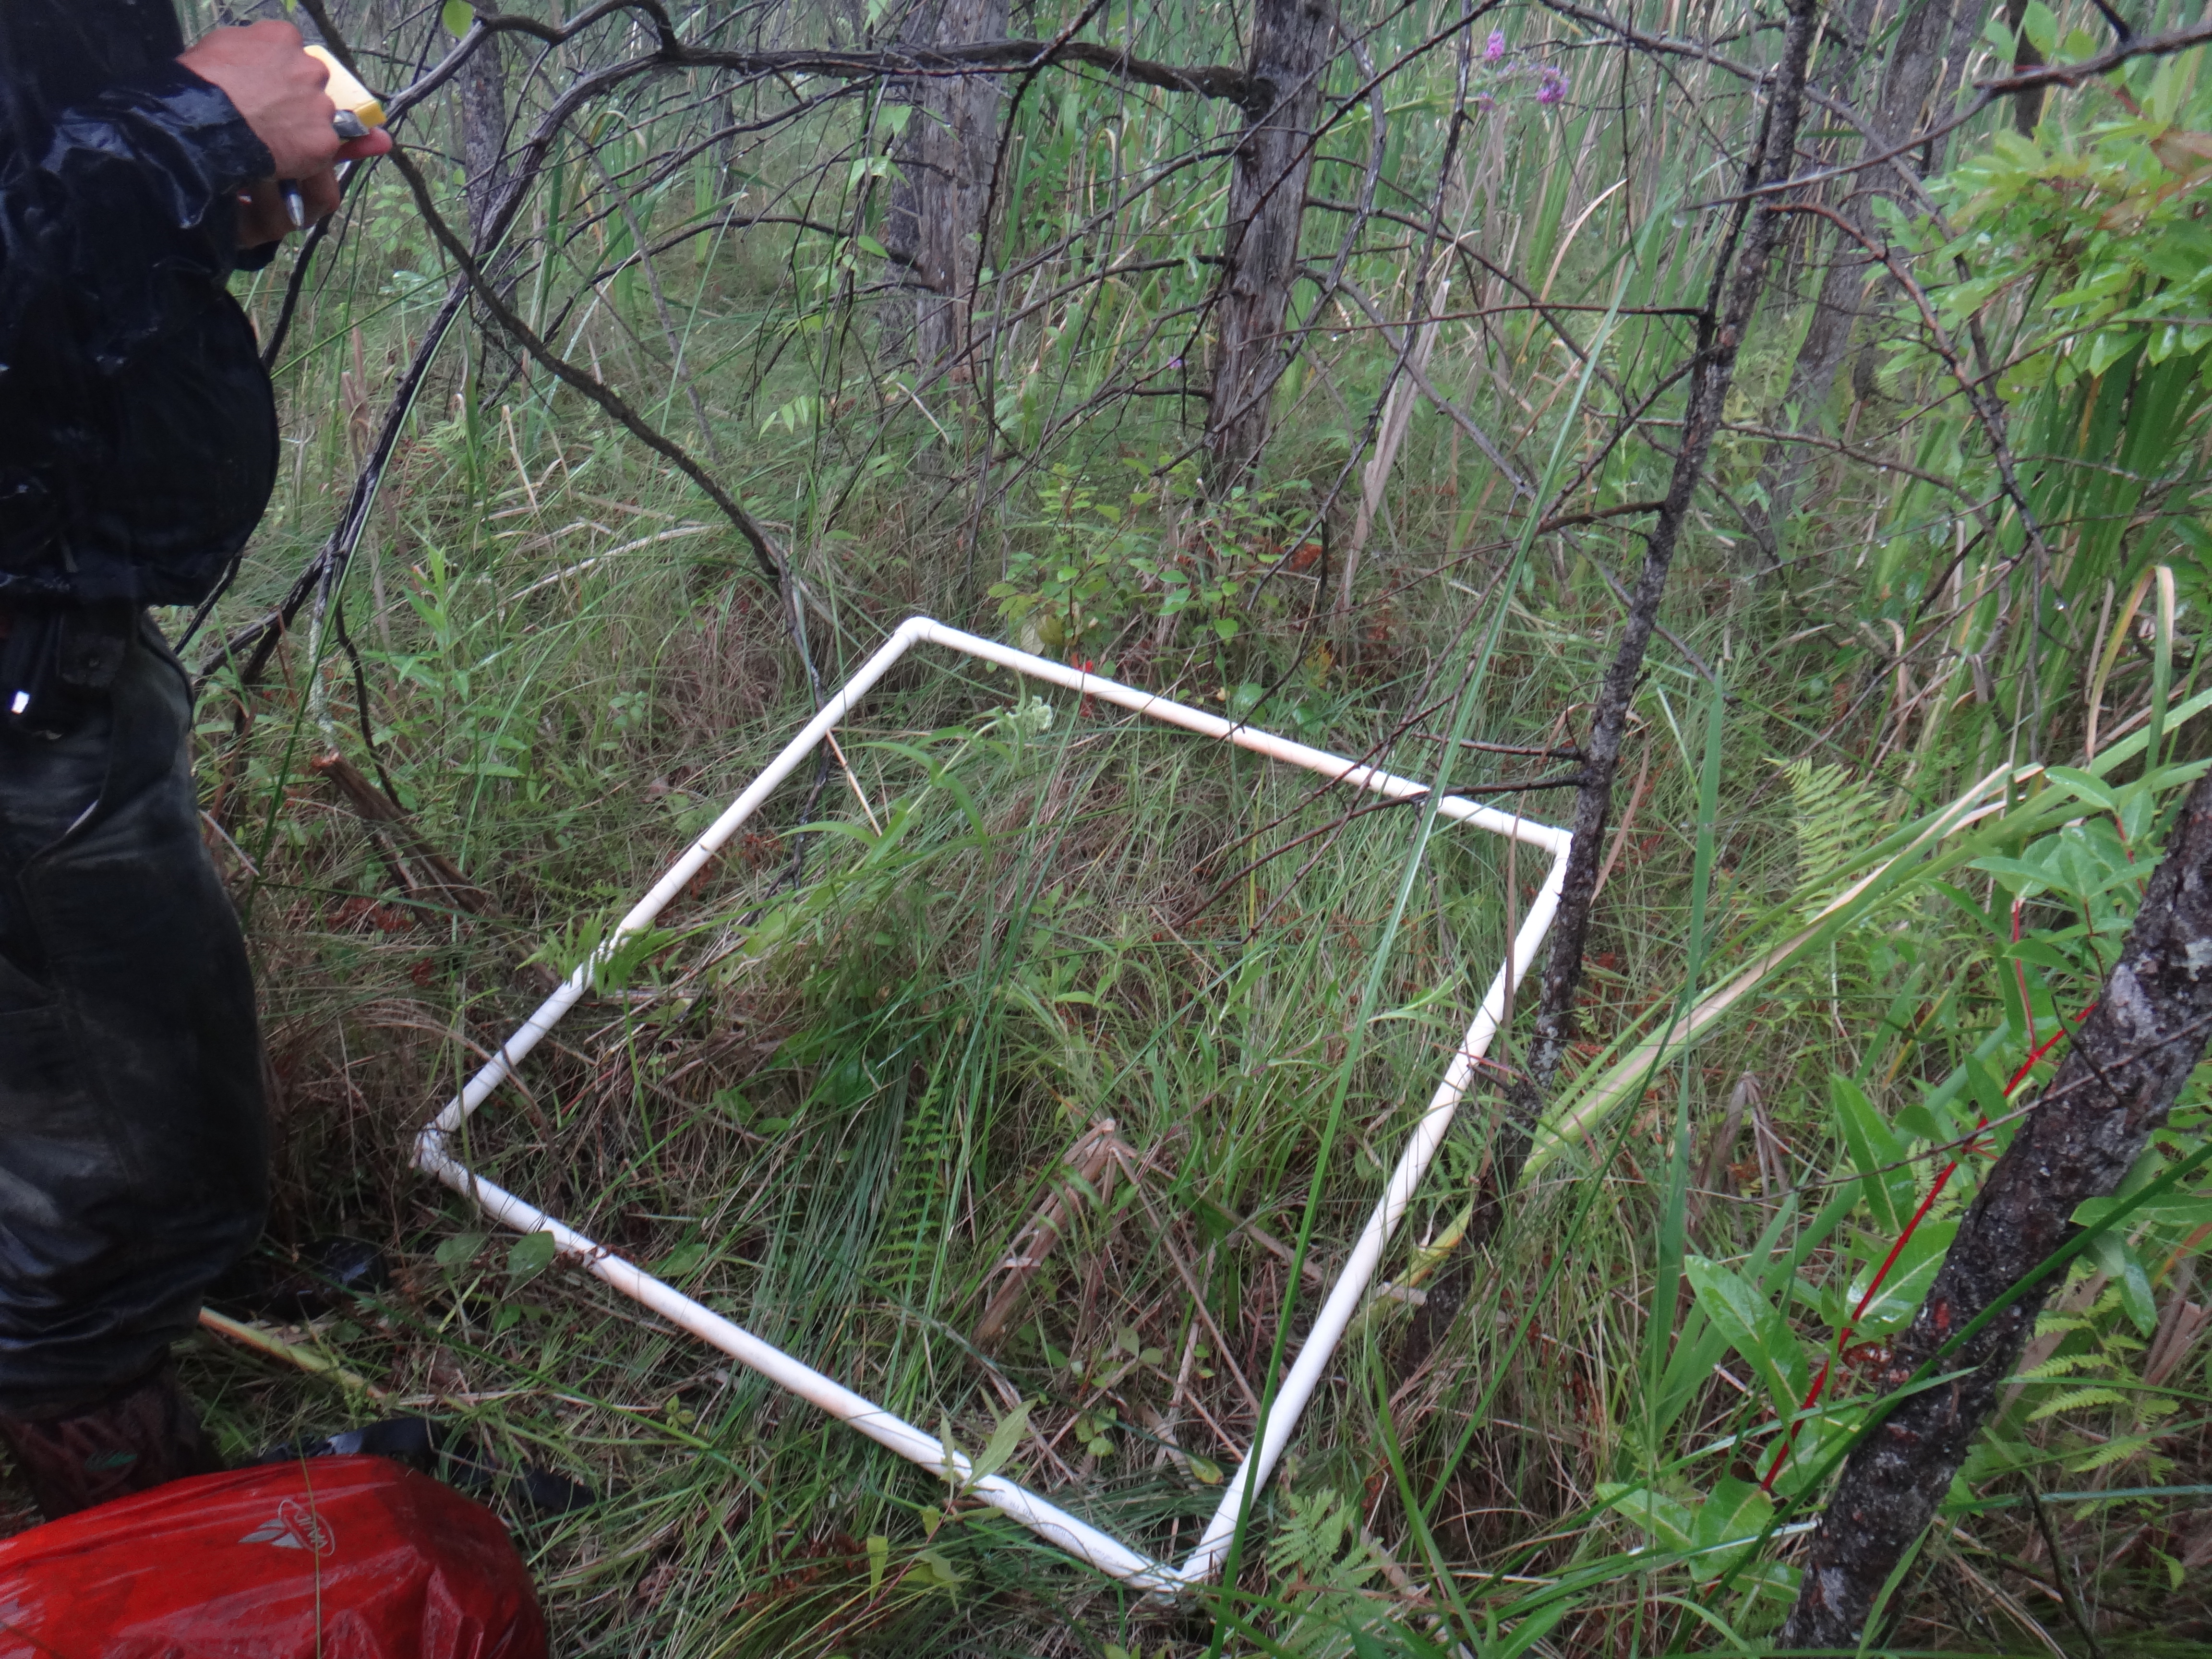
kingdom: Plantae
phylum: Tracheophyta
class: Magnoliopsida
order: Lamiales
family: Lamiaceae
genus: Mentha
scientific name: Mentha canadensis
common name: American corn mint
